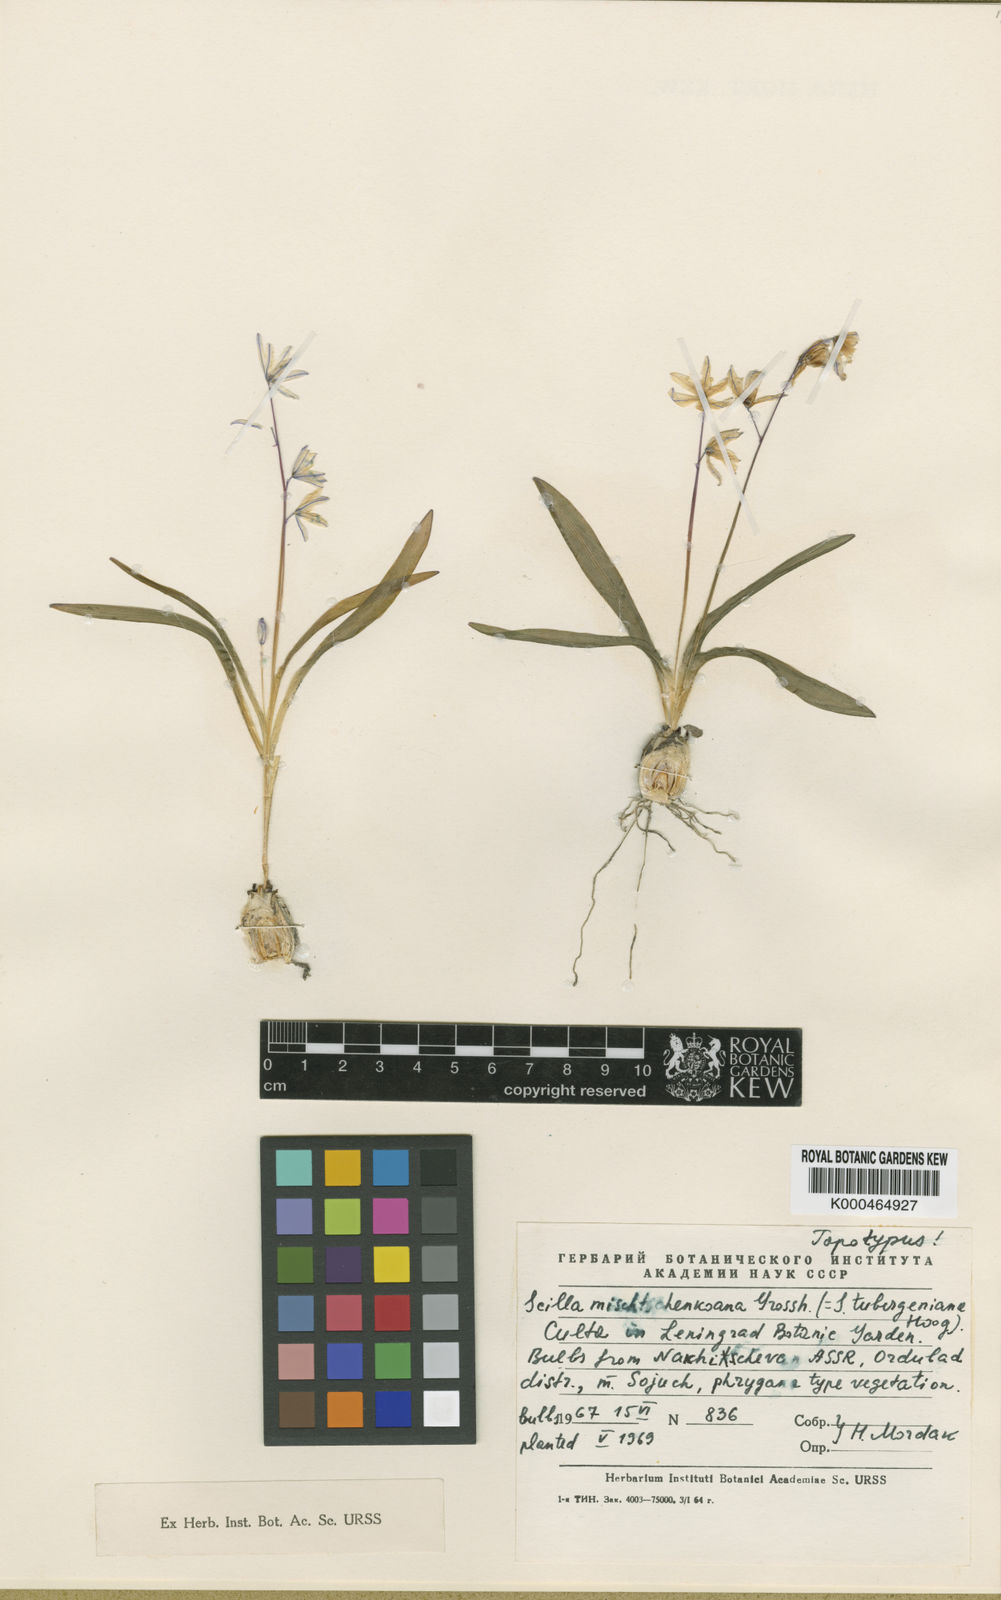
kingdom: Plantae
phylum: Tracheophyta
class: Liliopsida
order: Asparagales
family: Asparagaceae
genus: Scilla
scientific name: Scilla mischtschenkoana
